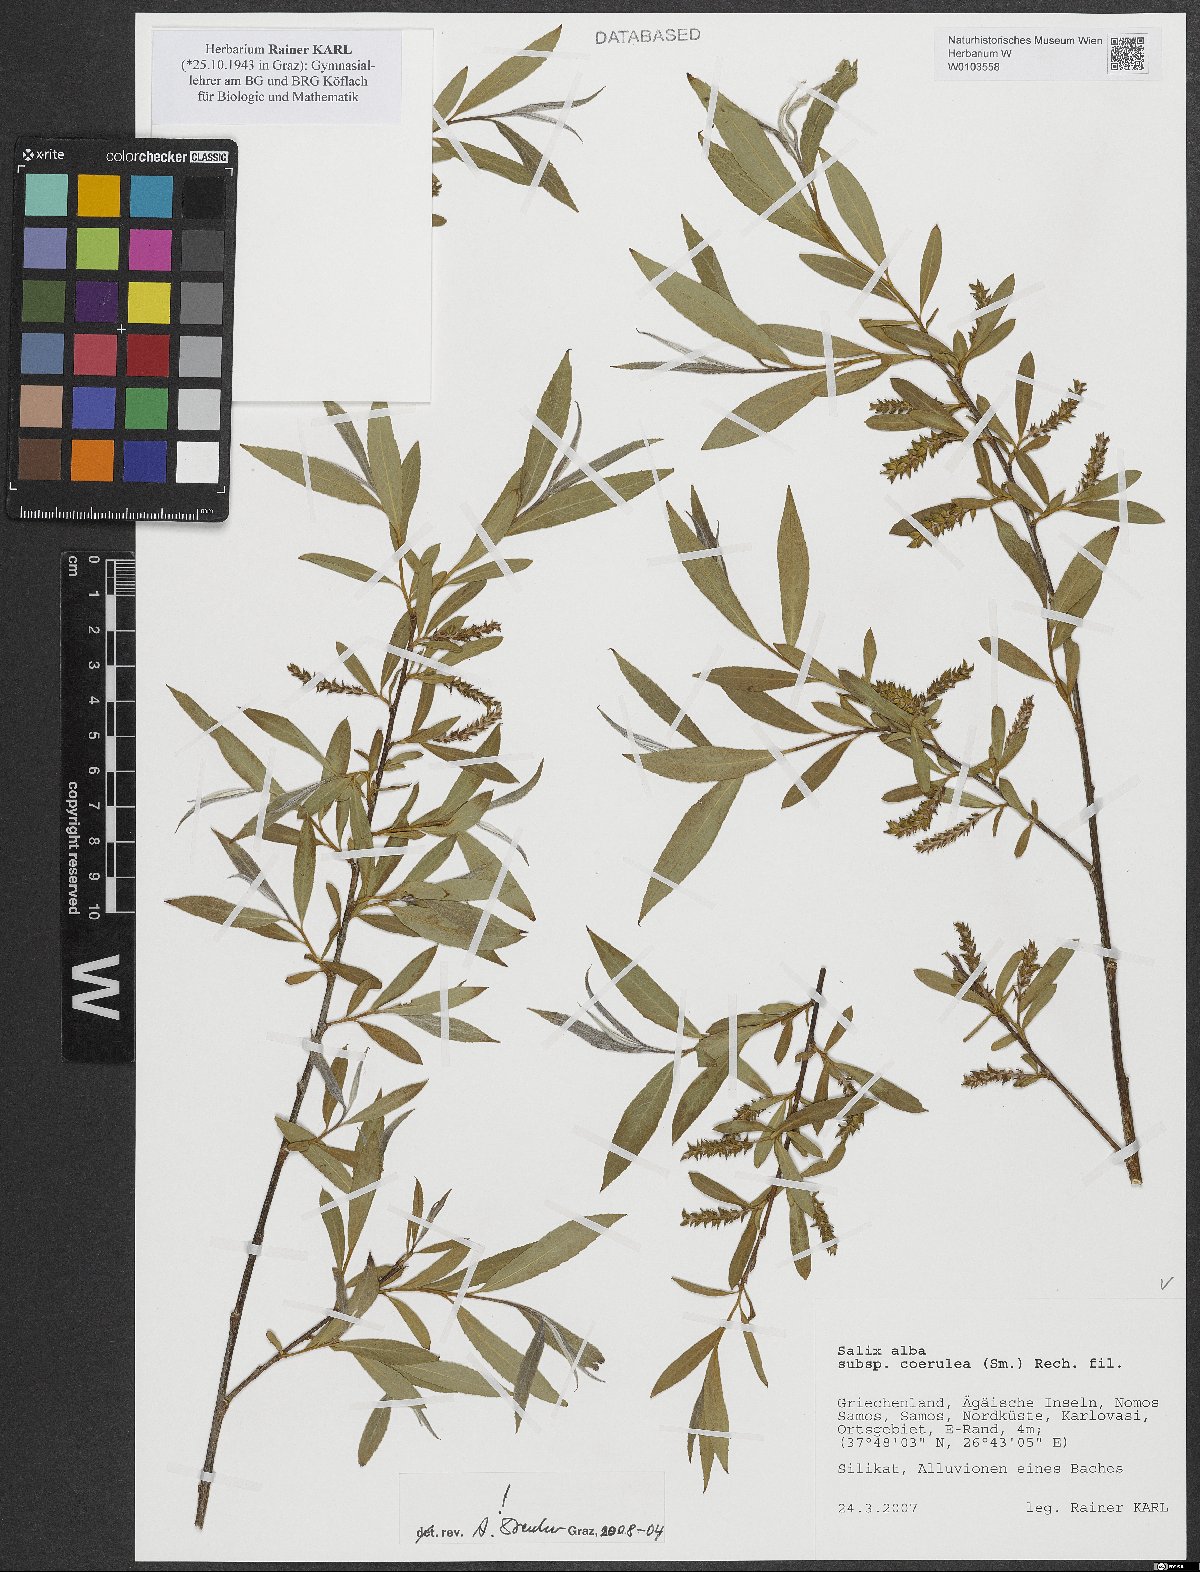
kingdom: Plantae
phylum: Tracheophyta
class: Magnoliopsida
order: Malpighiales
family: Salicaceae
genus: Salix
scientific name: Salix alba
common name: White willow
